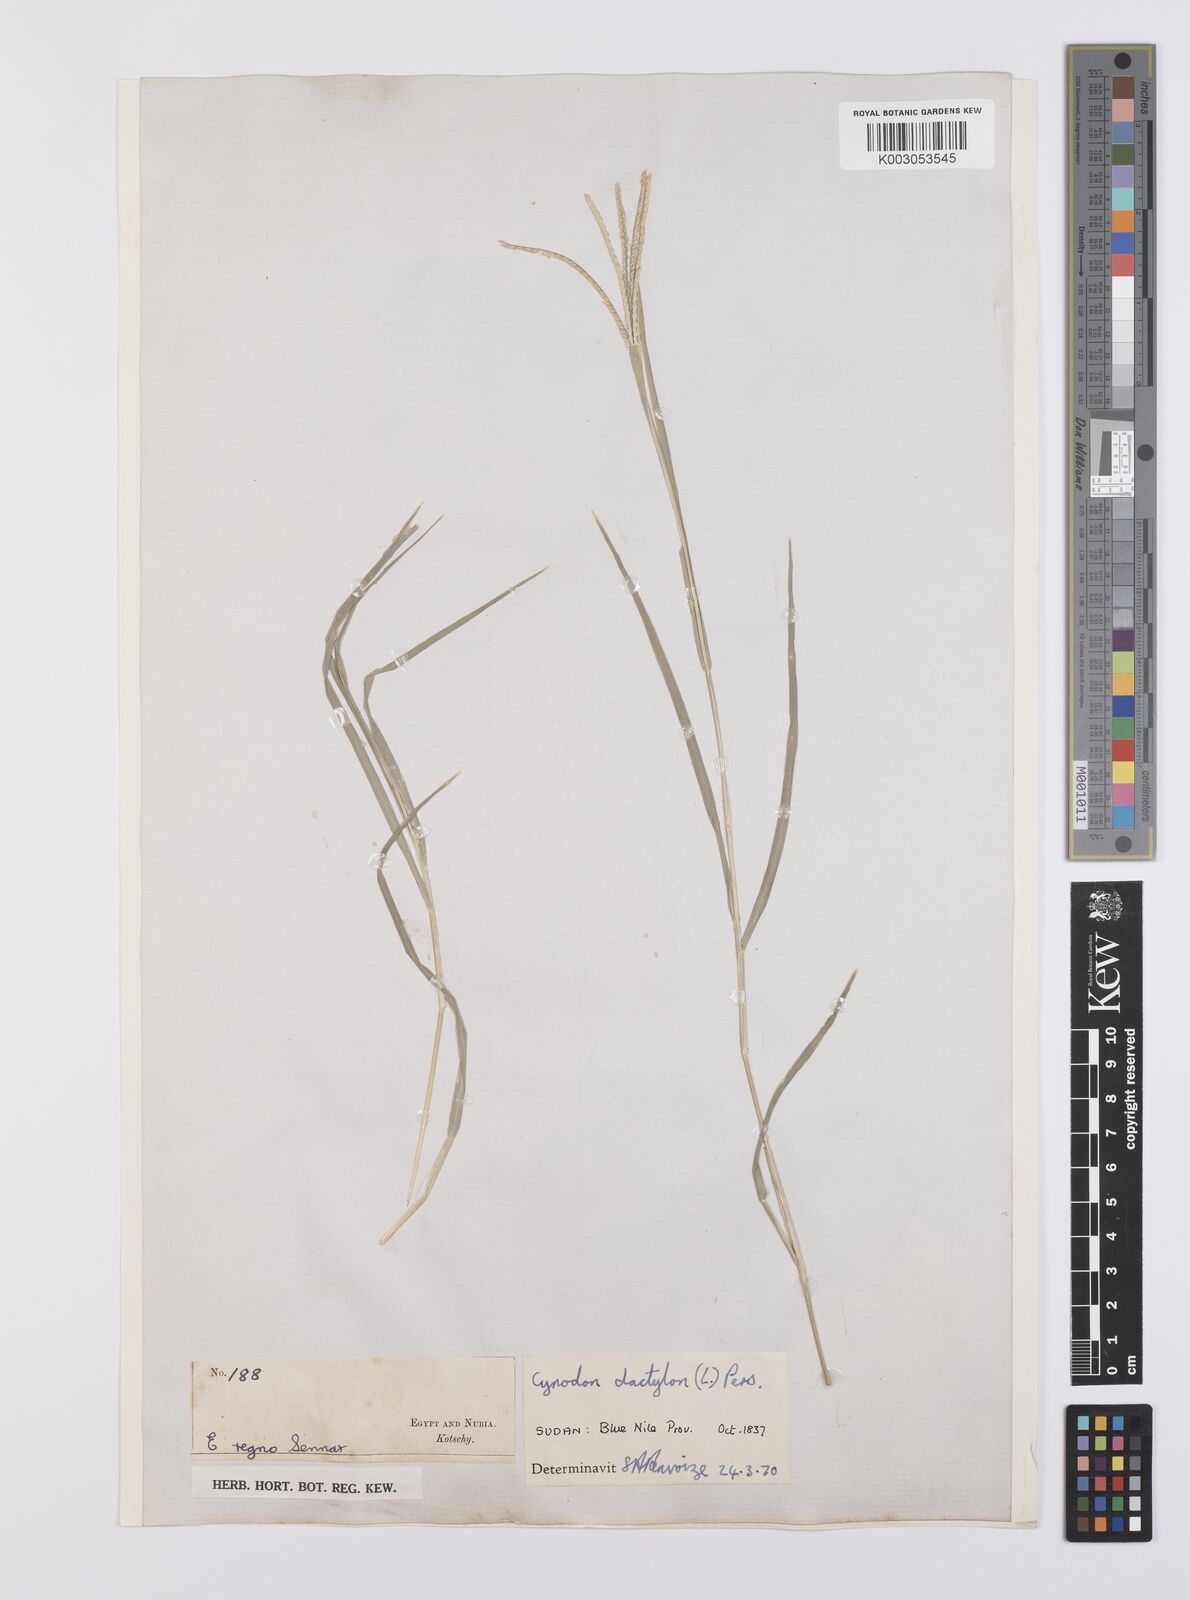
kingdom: Plantae
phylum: Tracheophyta
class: Liliopsida
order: Poales
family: Poaceae
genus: Cynodon
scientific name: Cynodon dactylon
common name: Bermuda grass
